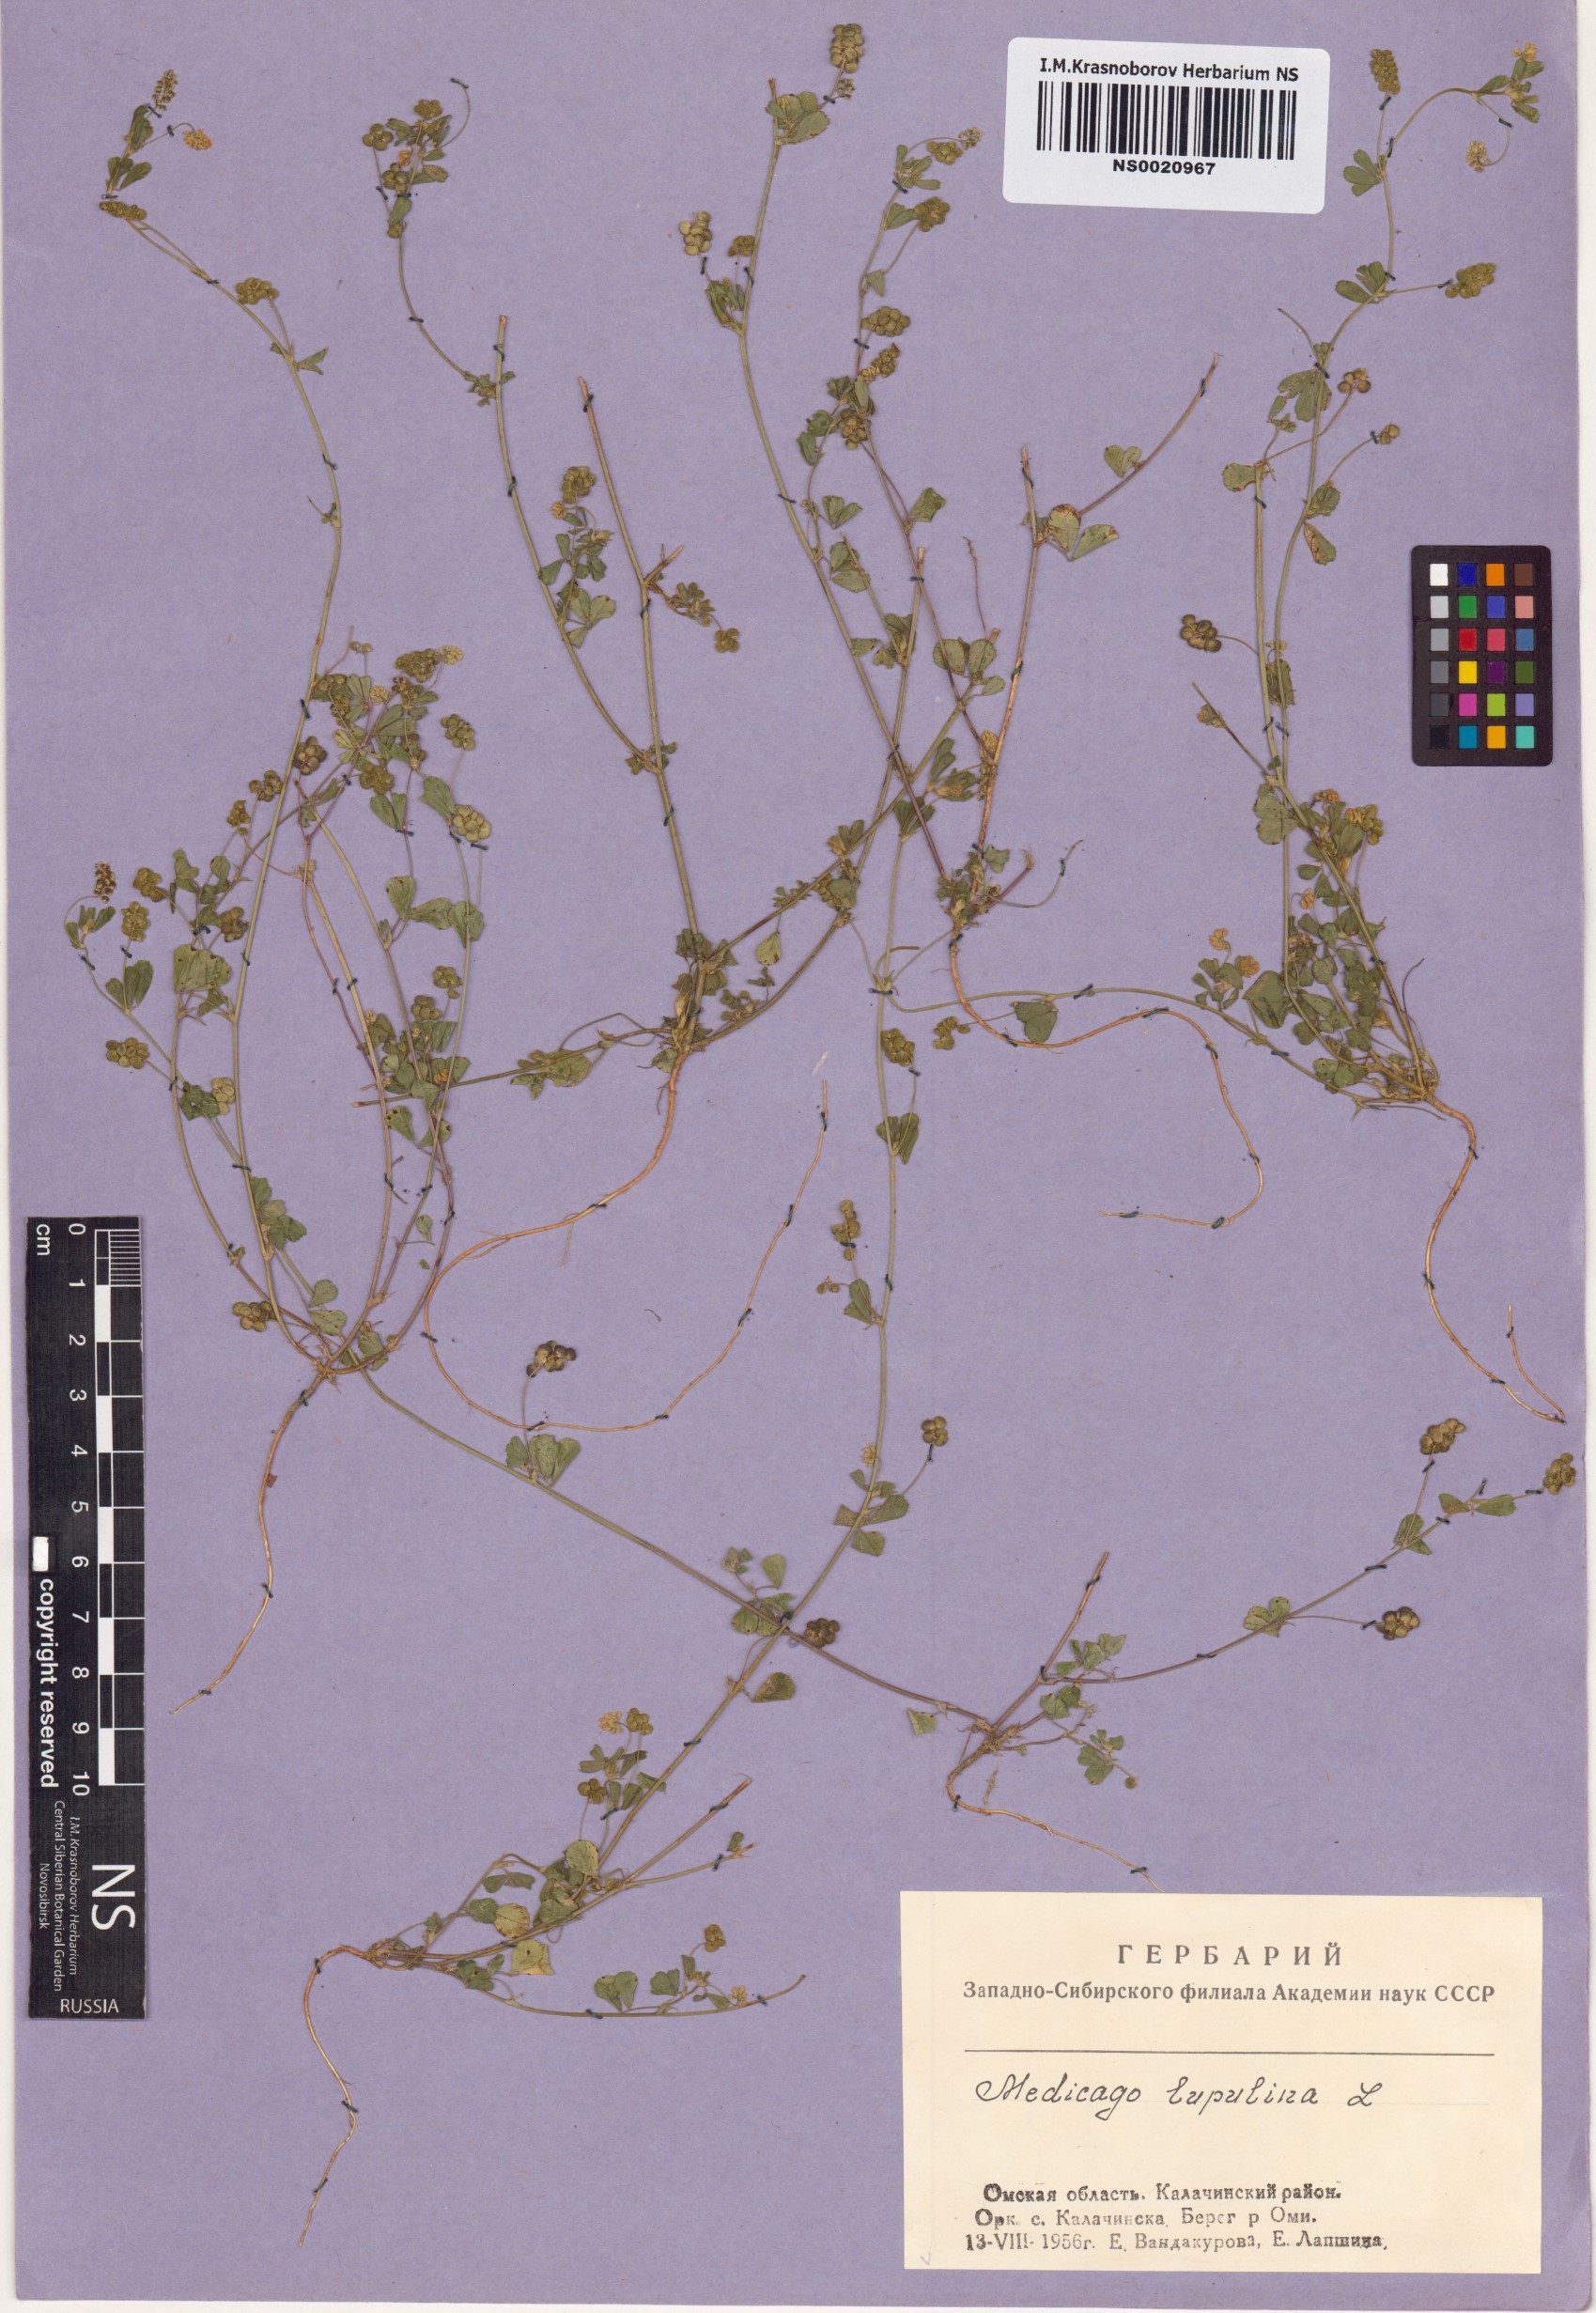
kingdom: Plantae
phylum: Tracheophyta
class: Magnoliopsida
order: Fabales
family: Fabaceae
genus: Medicago
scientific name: Medicago lupulina
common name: Black medick
